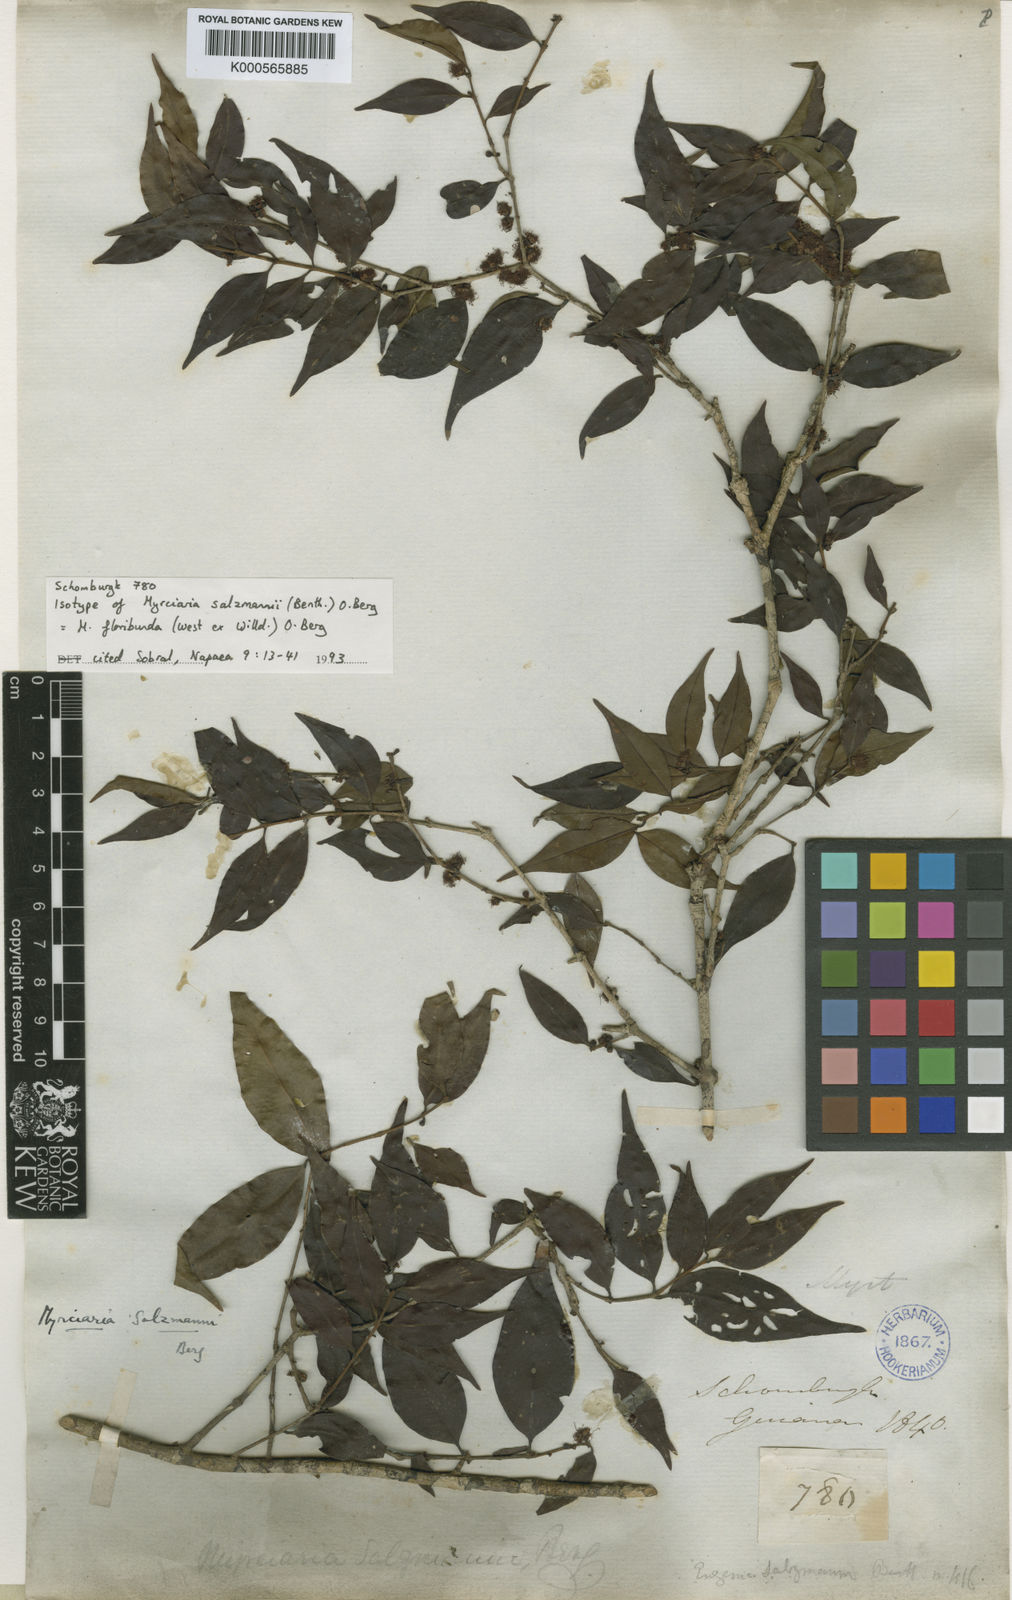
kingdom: Plantae
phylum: Tracheophyta
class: Magnoliopsida
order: Myrtales
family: Myrtaceae
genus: Myrciaria
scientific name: Myrciaria floribunda
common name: Guavaberry
